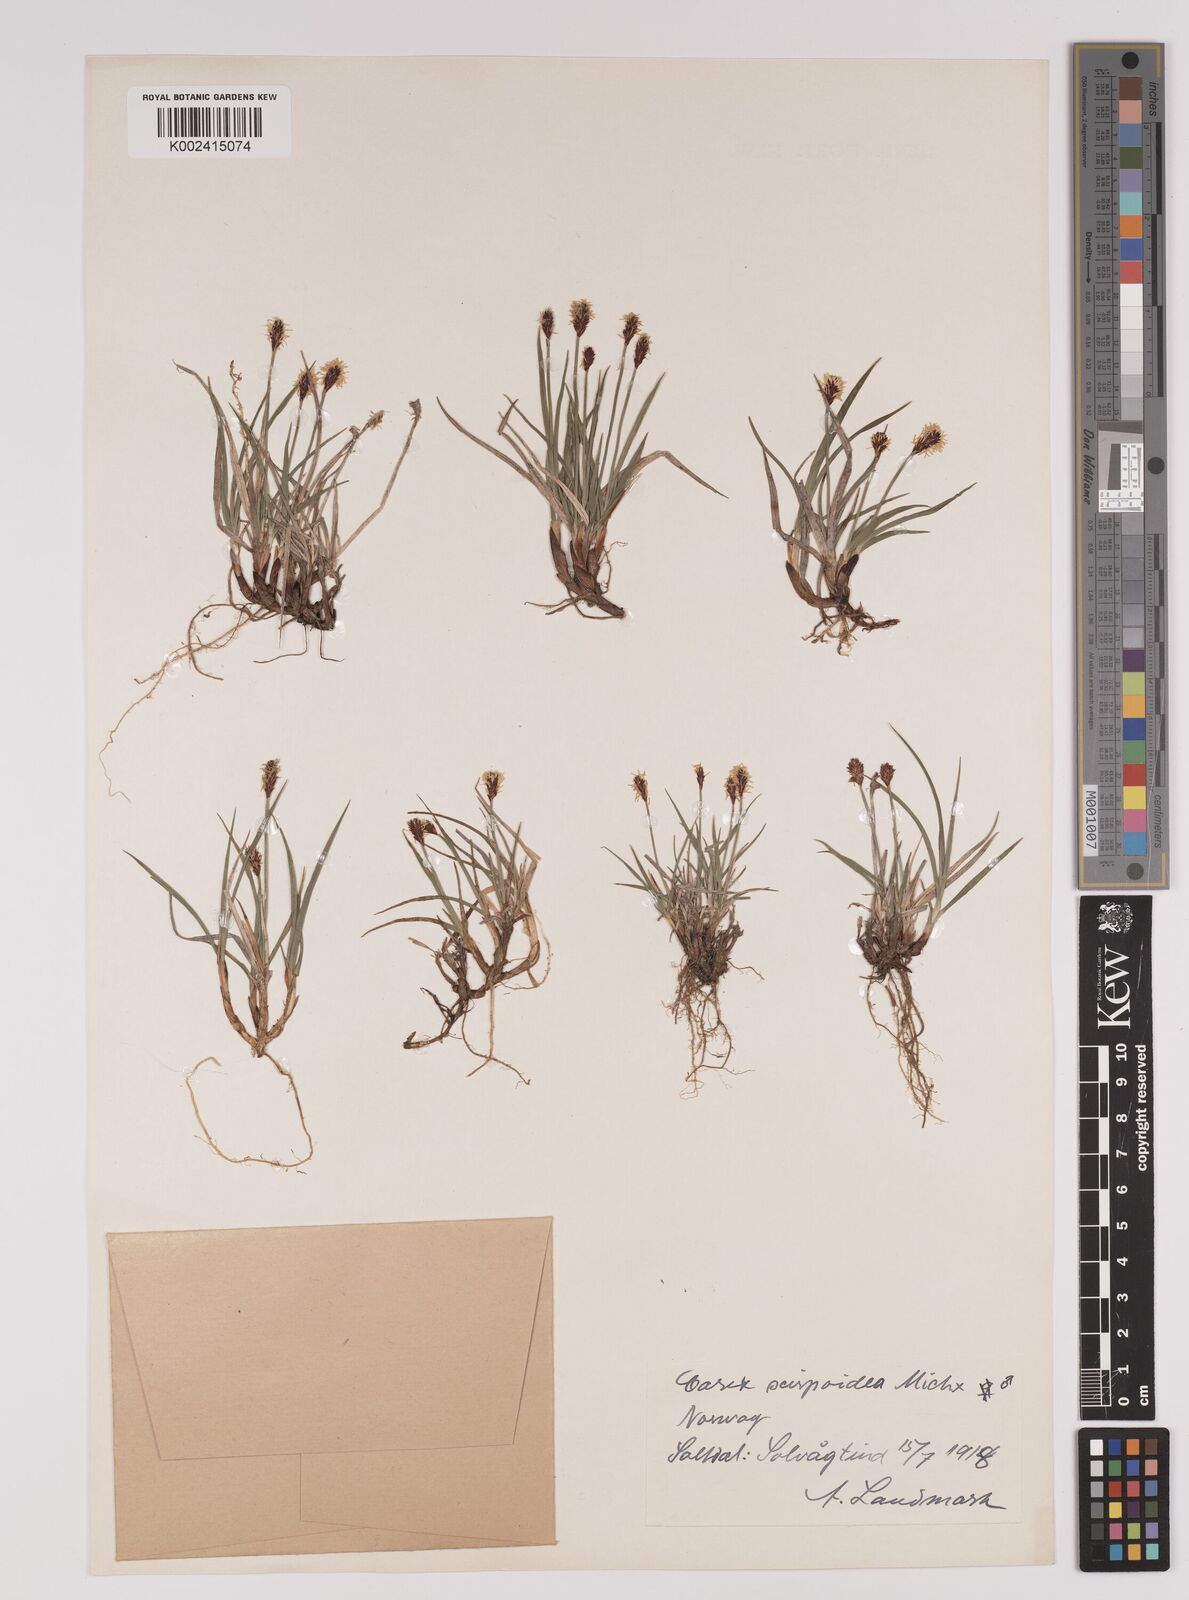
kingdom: Plantae
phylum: Tracheophyta
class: Liliopsida
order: Poales
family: Cyperaceae
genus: Carex
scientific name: Carex
